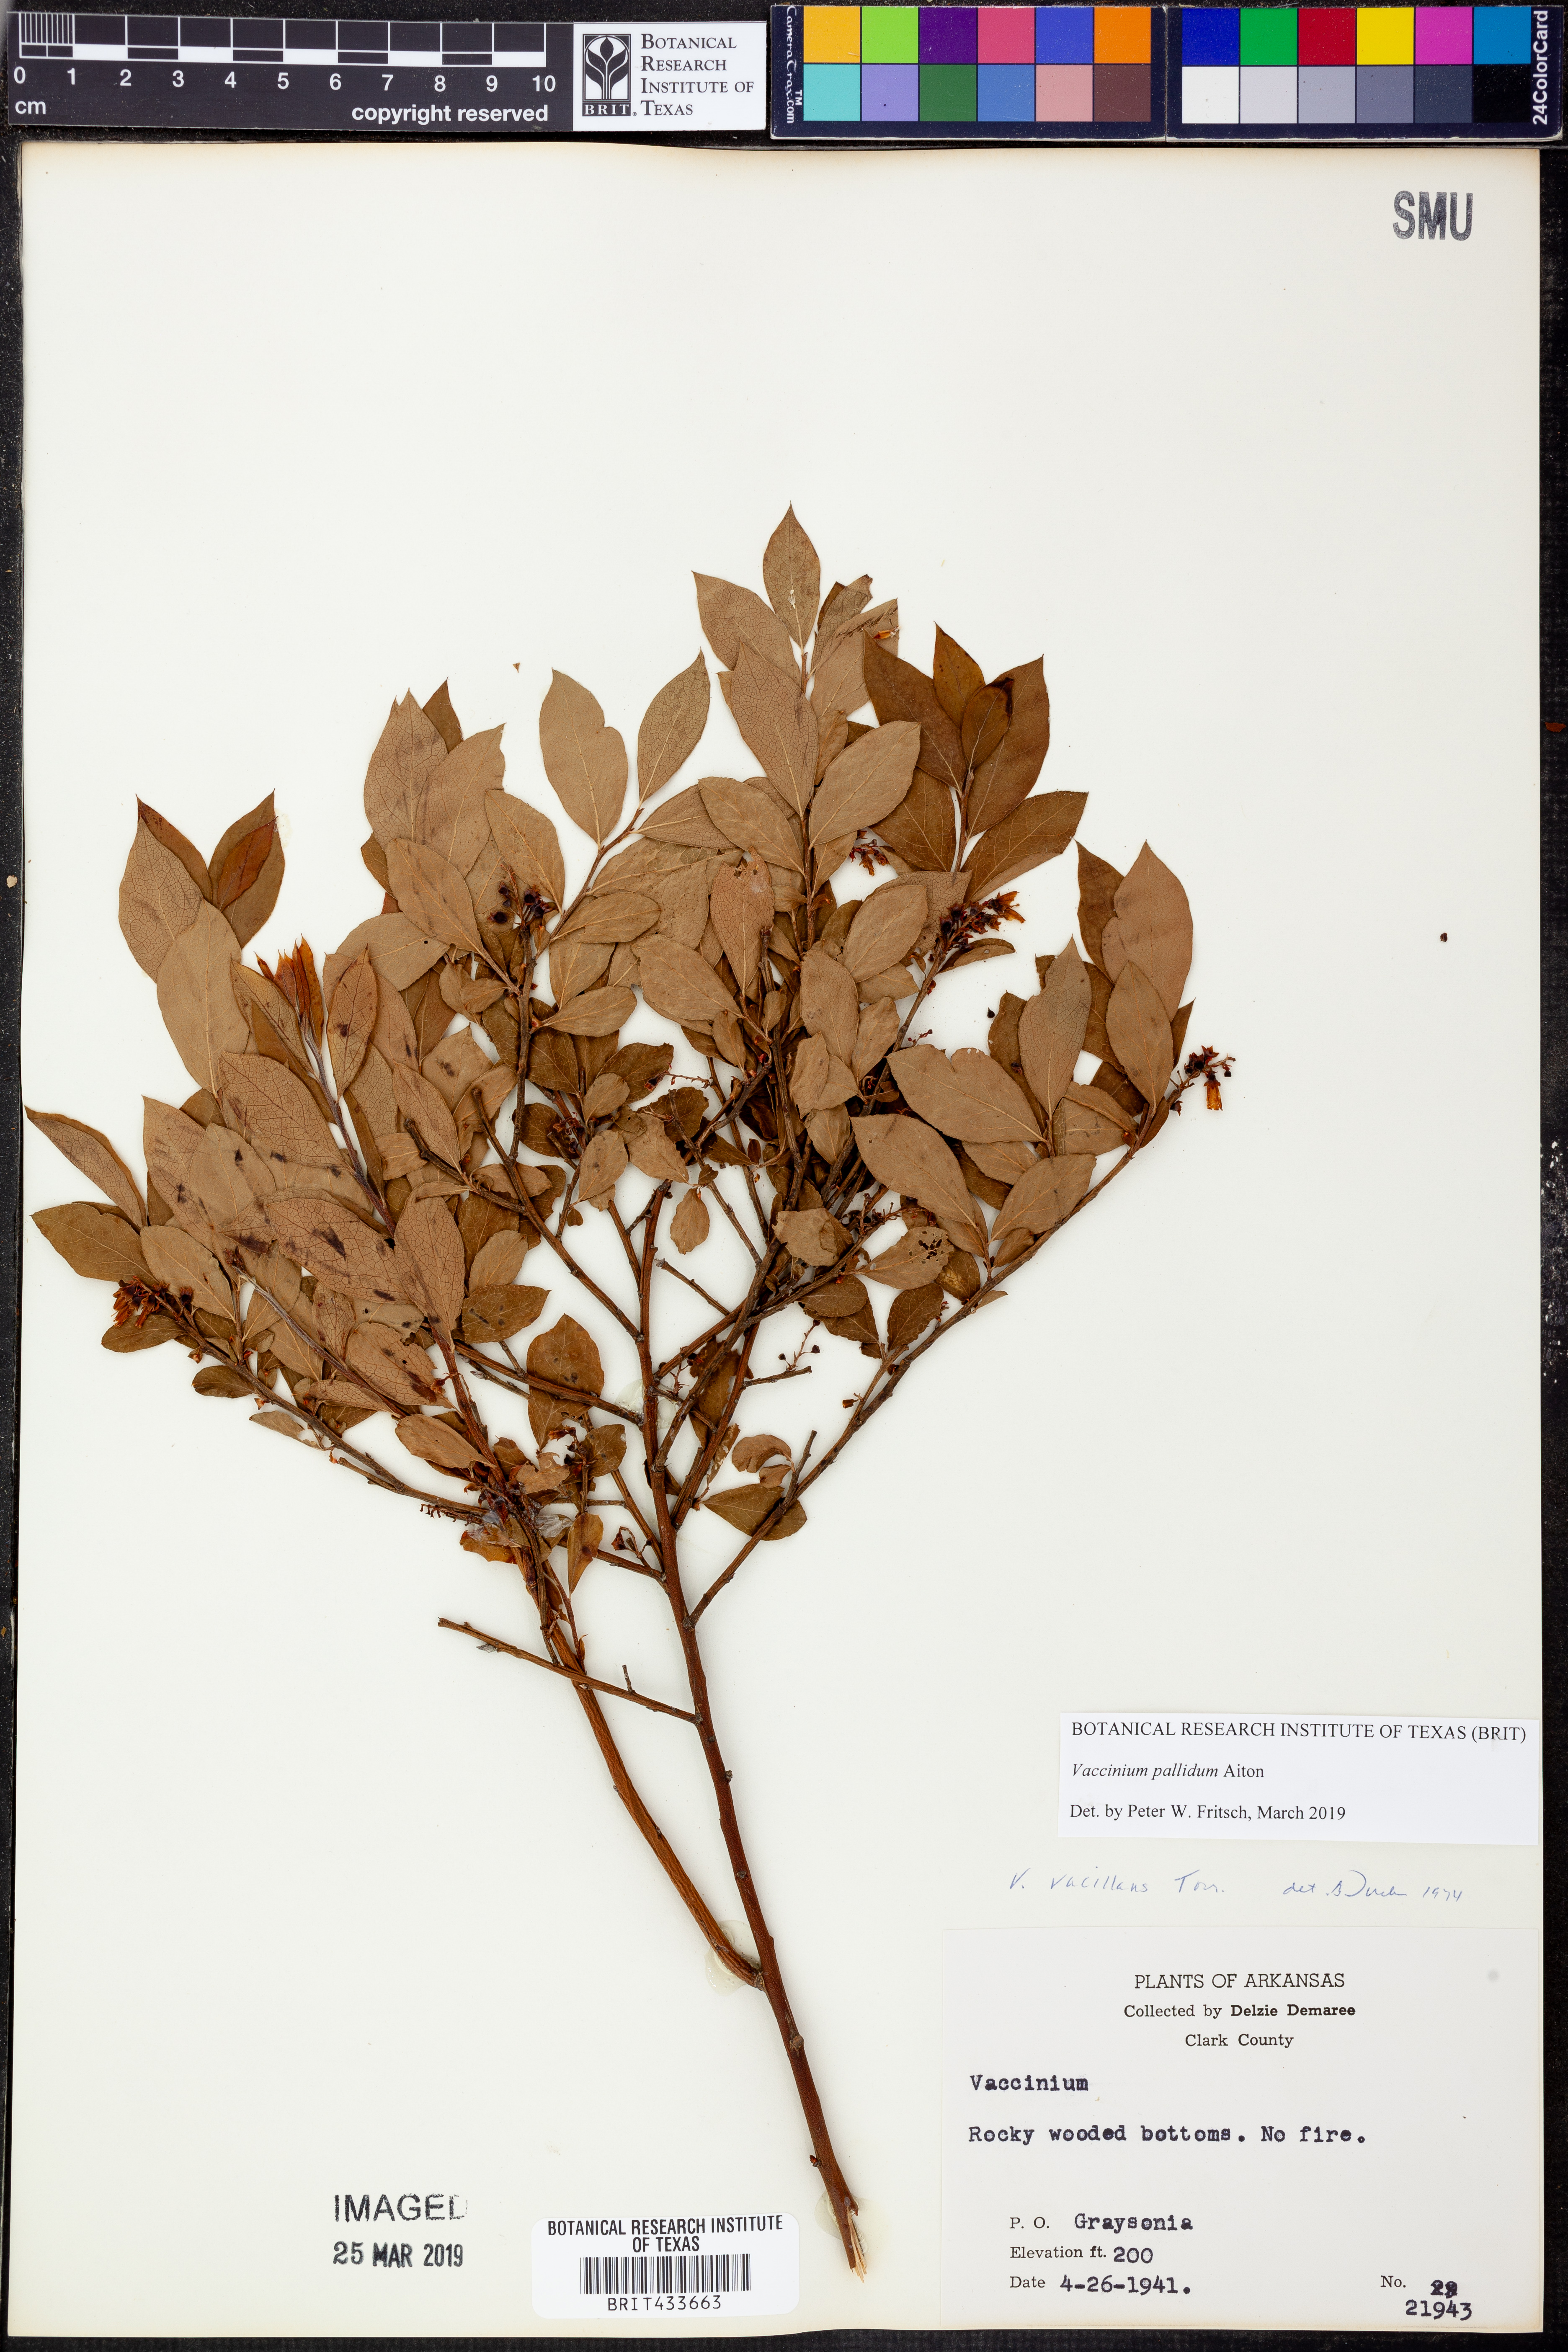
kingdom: Plantae
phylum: Tracheophyta
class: Magnoliopsida
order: Ericales
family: Ericaceae
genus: Vaccinium
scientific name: Vaccinium pallidum
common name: Blue ridge blueberry
